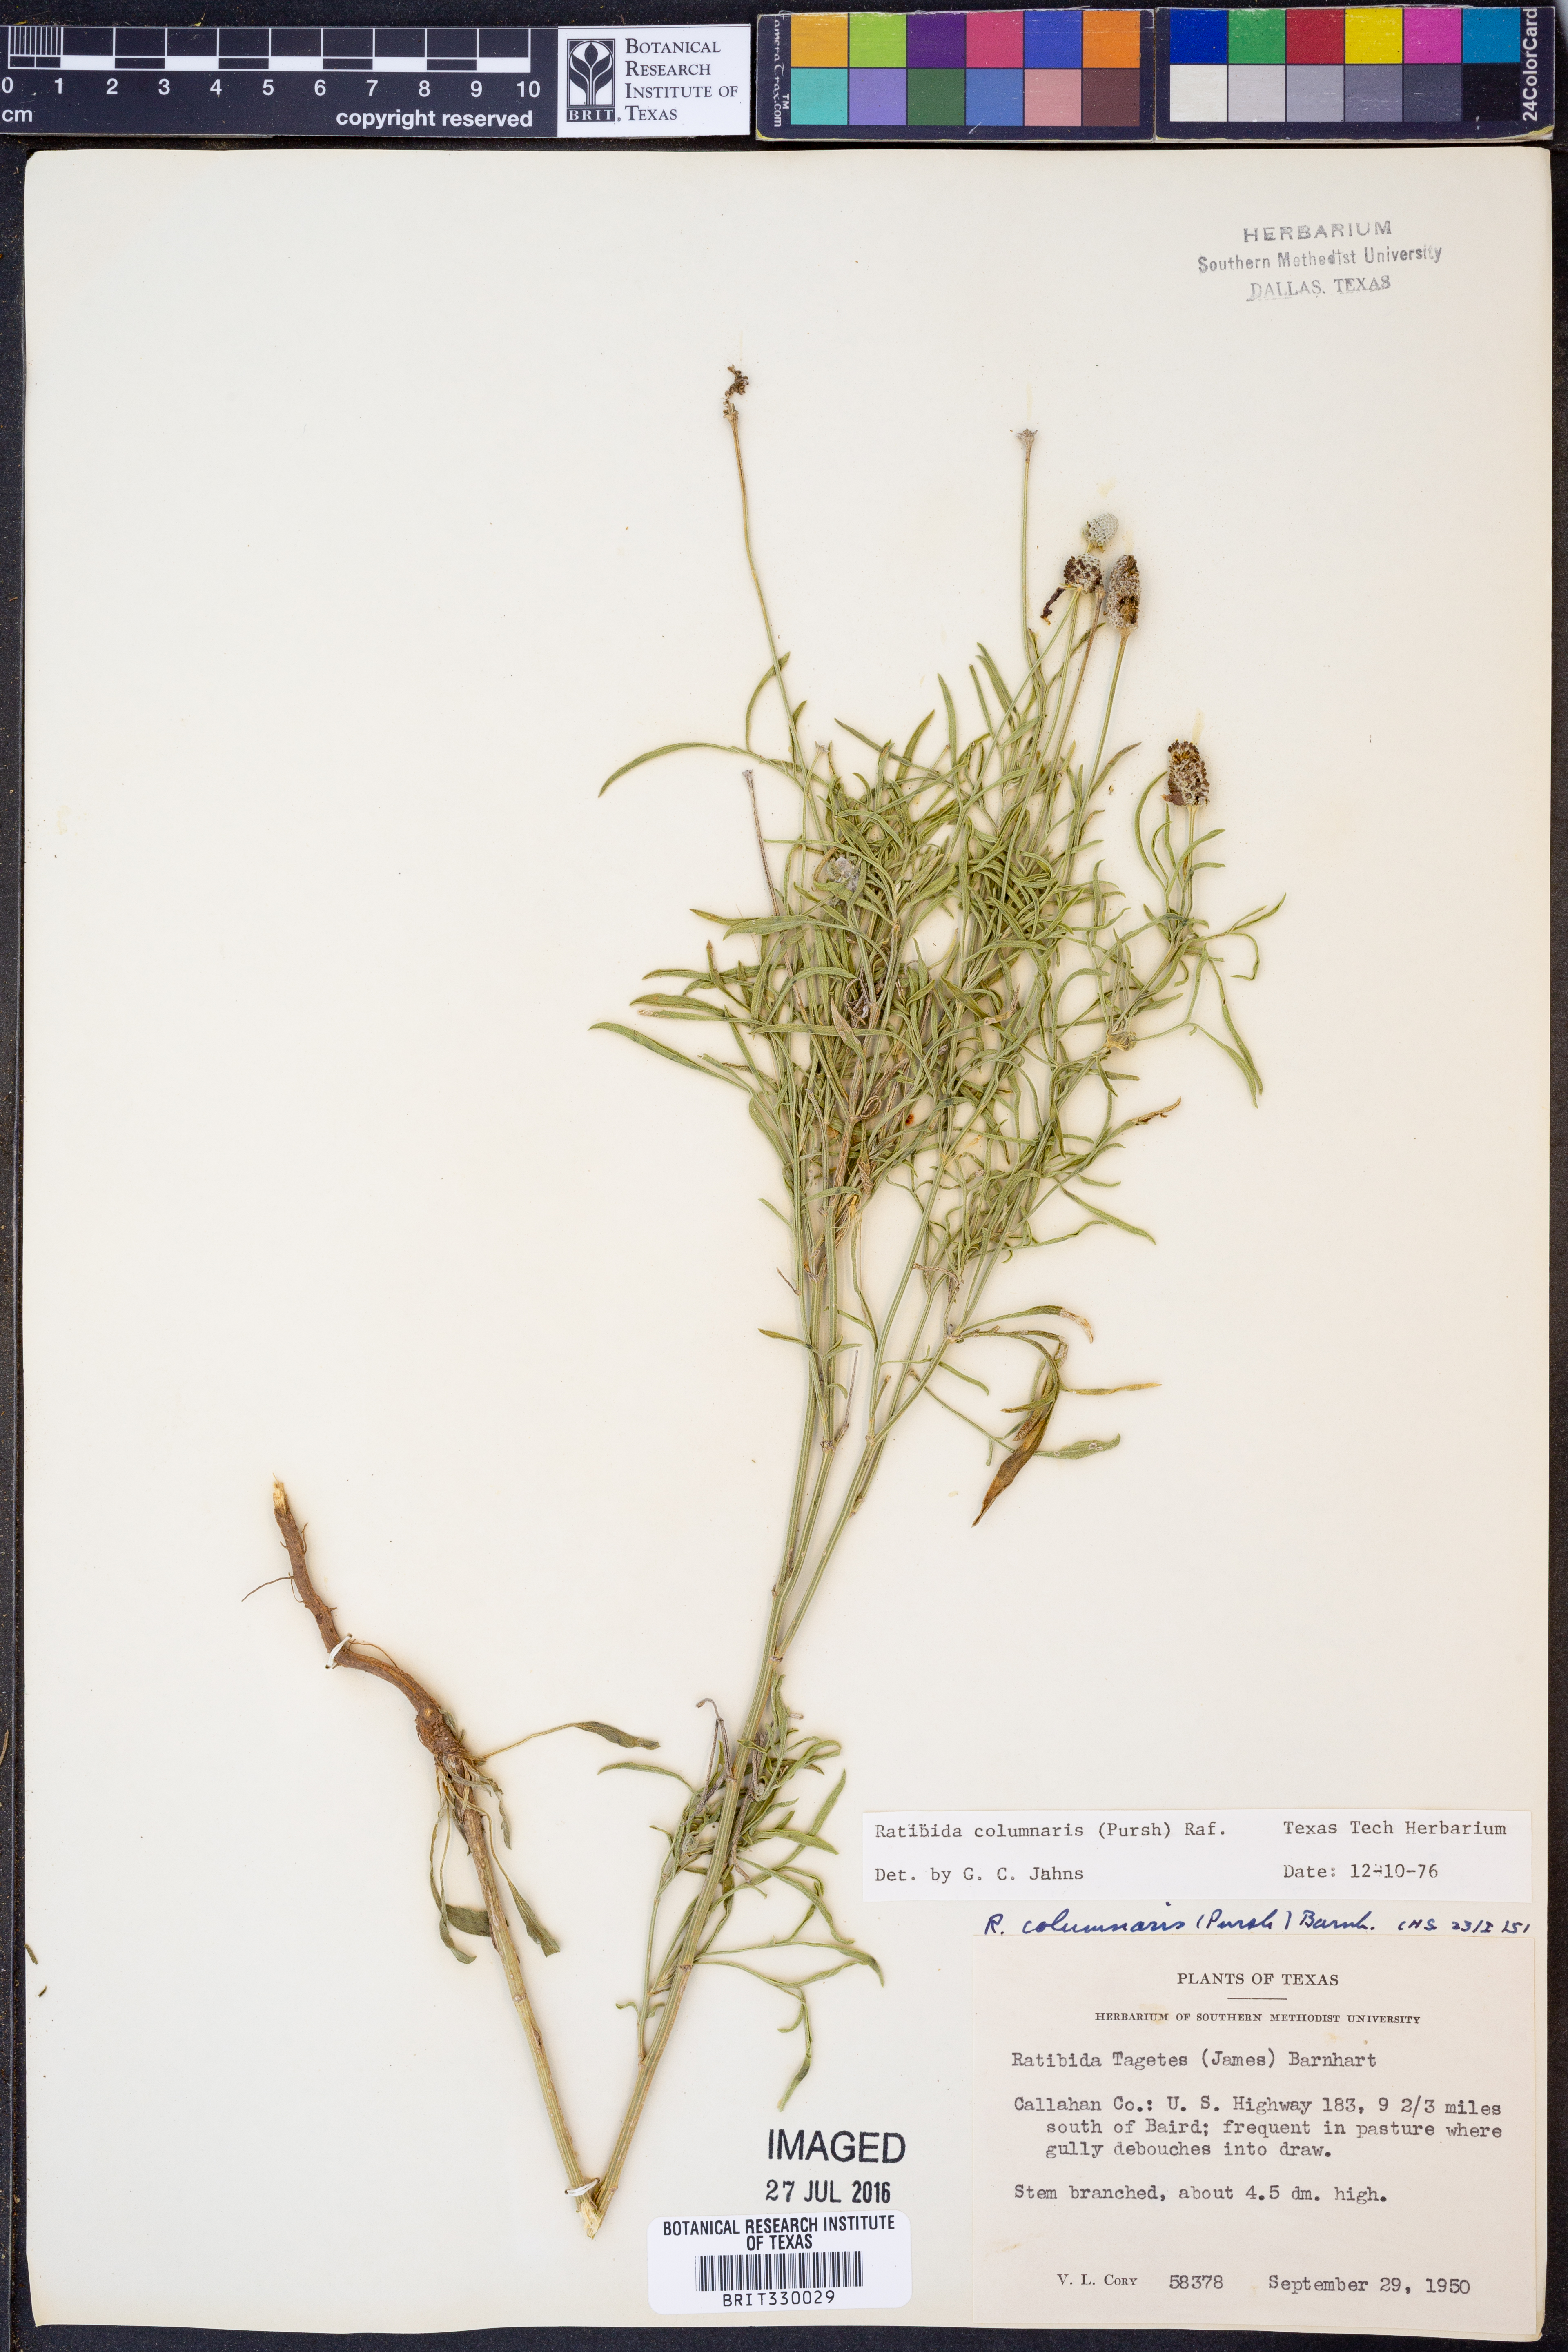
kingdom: Plantae
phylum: Tracheophyta
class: Magnoliopsida
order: Asterales
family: Asteraceae
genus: Ratibida
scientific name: Ratibida columnifera
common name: Prairie coneflower
